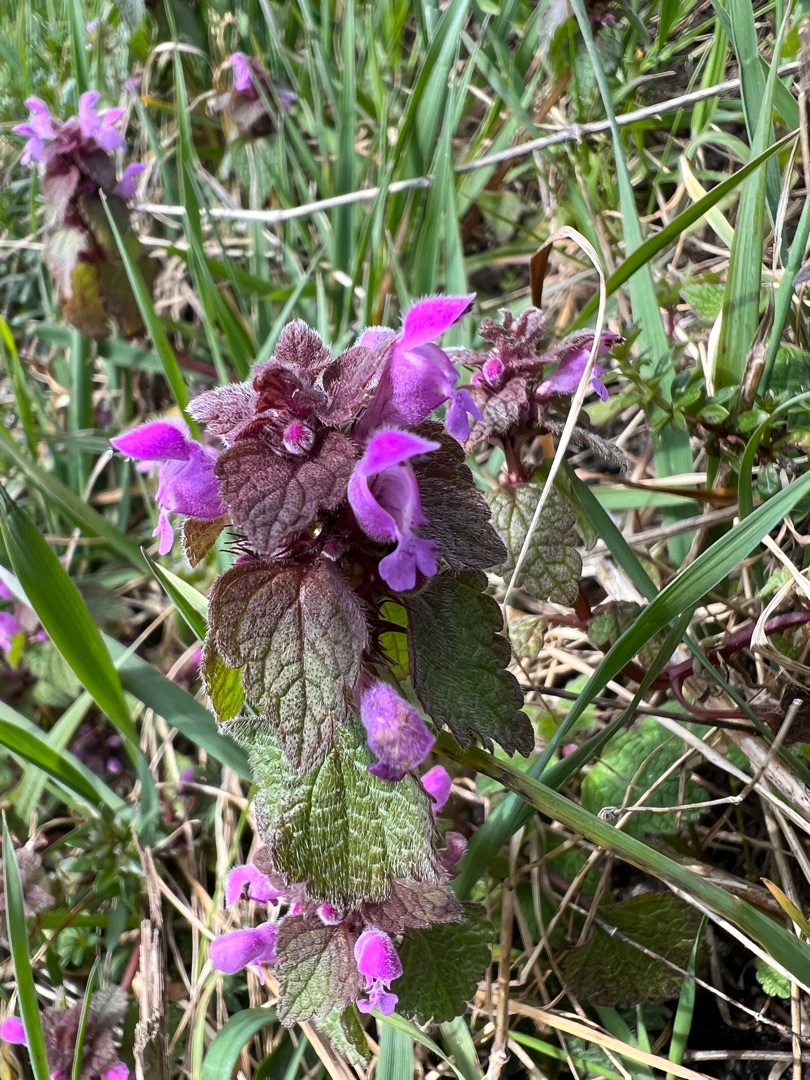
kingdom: Plantae
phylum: Tracheophyta
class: Magnoliopsida
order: Lamiales
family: Lamiaceae
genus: Lamium
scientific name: Lamium purpureum
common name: Rød tvetand
